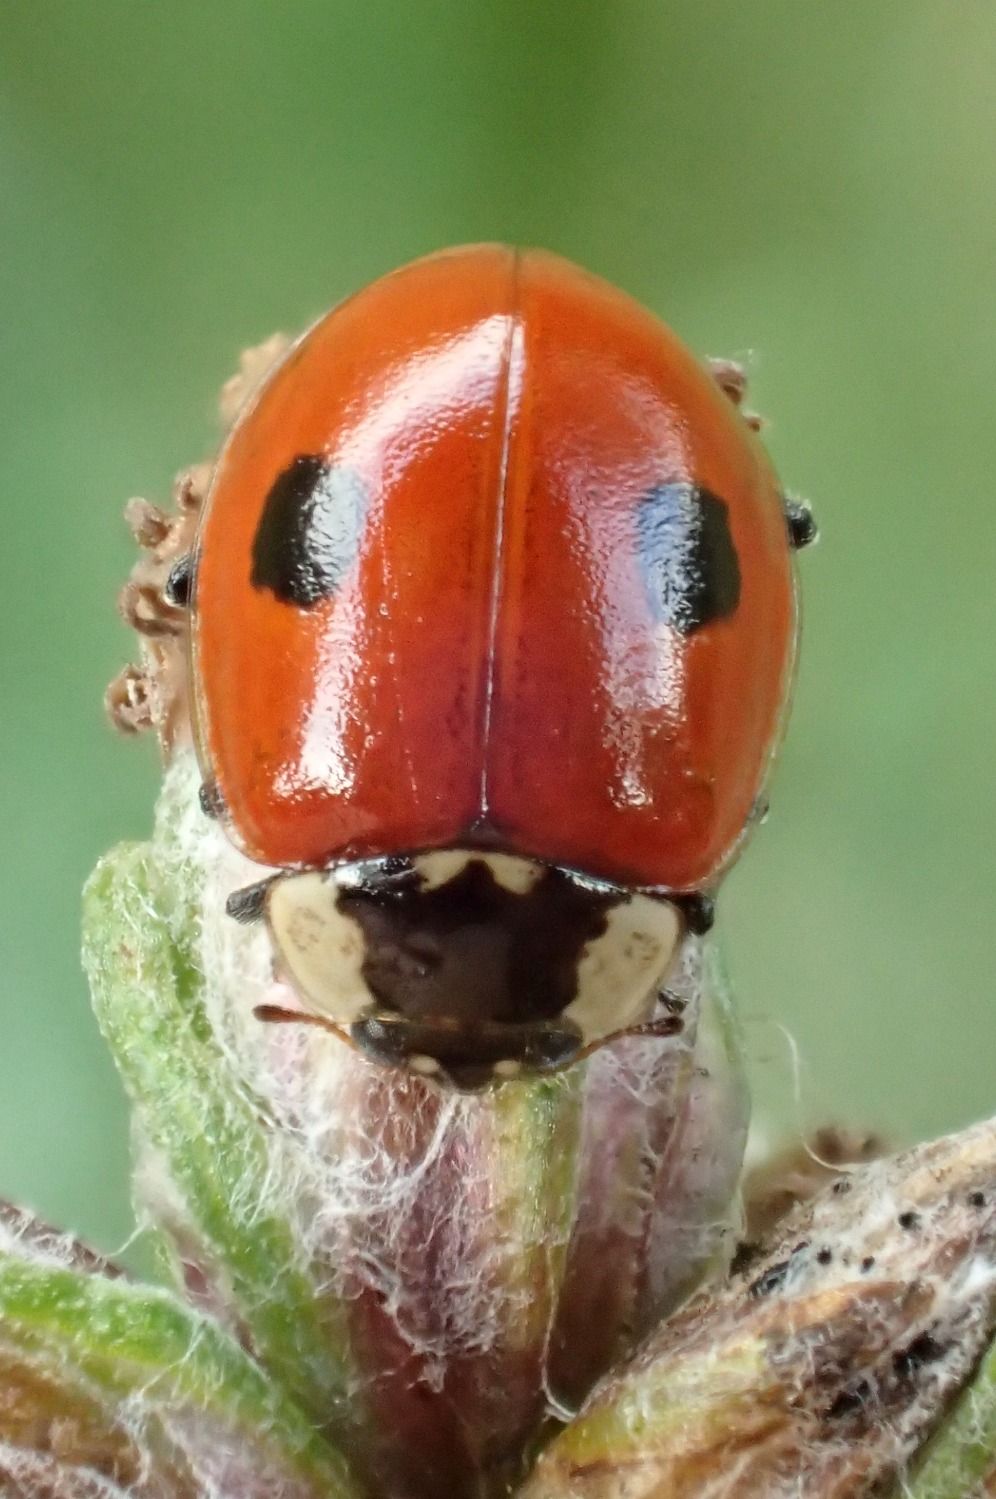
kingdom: Animalia
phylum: Arthropoda
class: Insecta
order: Coleoptera
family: Coccinellidae
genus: Adalia
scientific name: Adalia bipunctata
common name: Toplettet mariehøne
